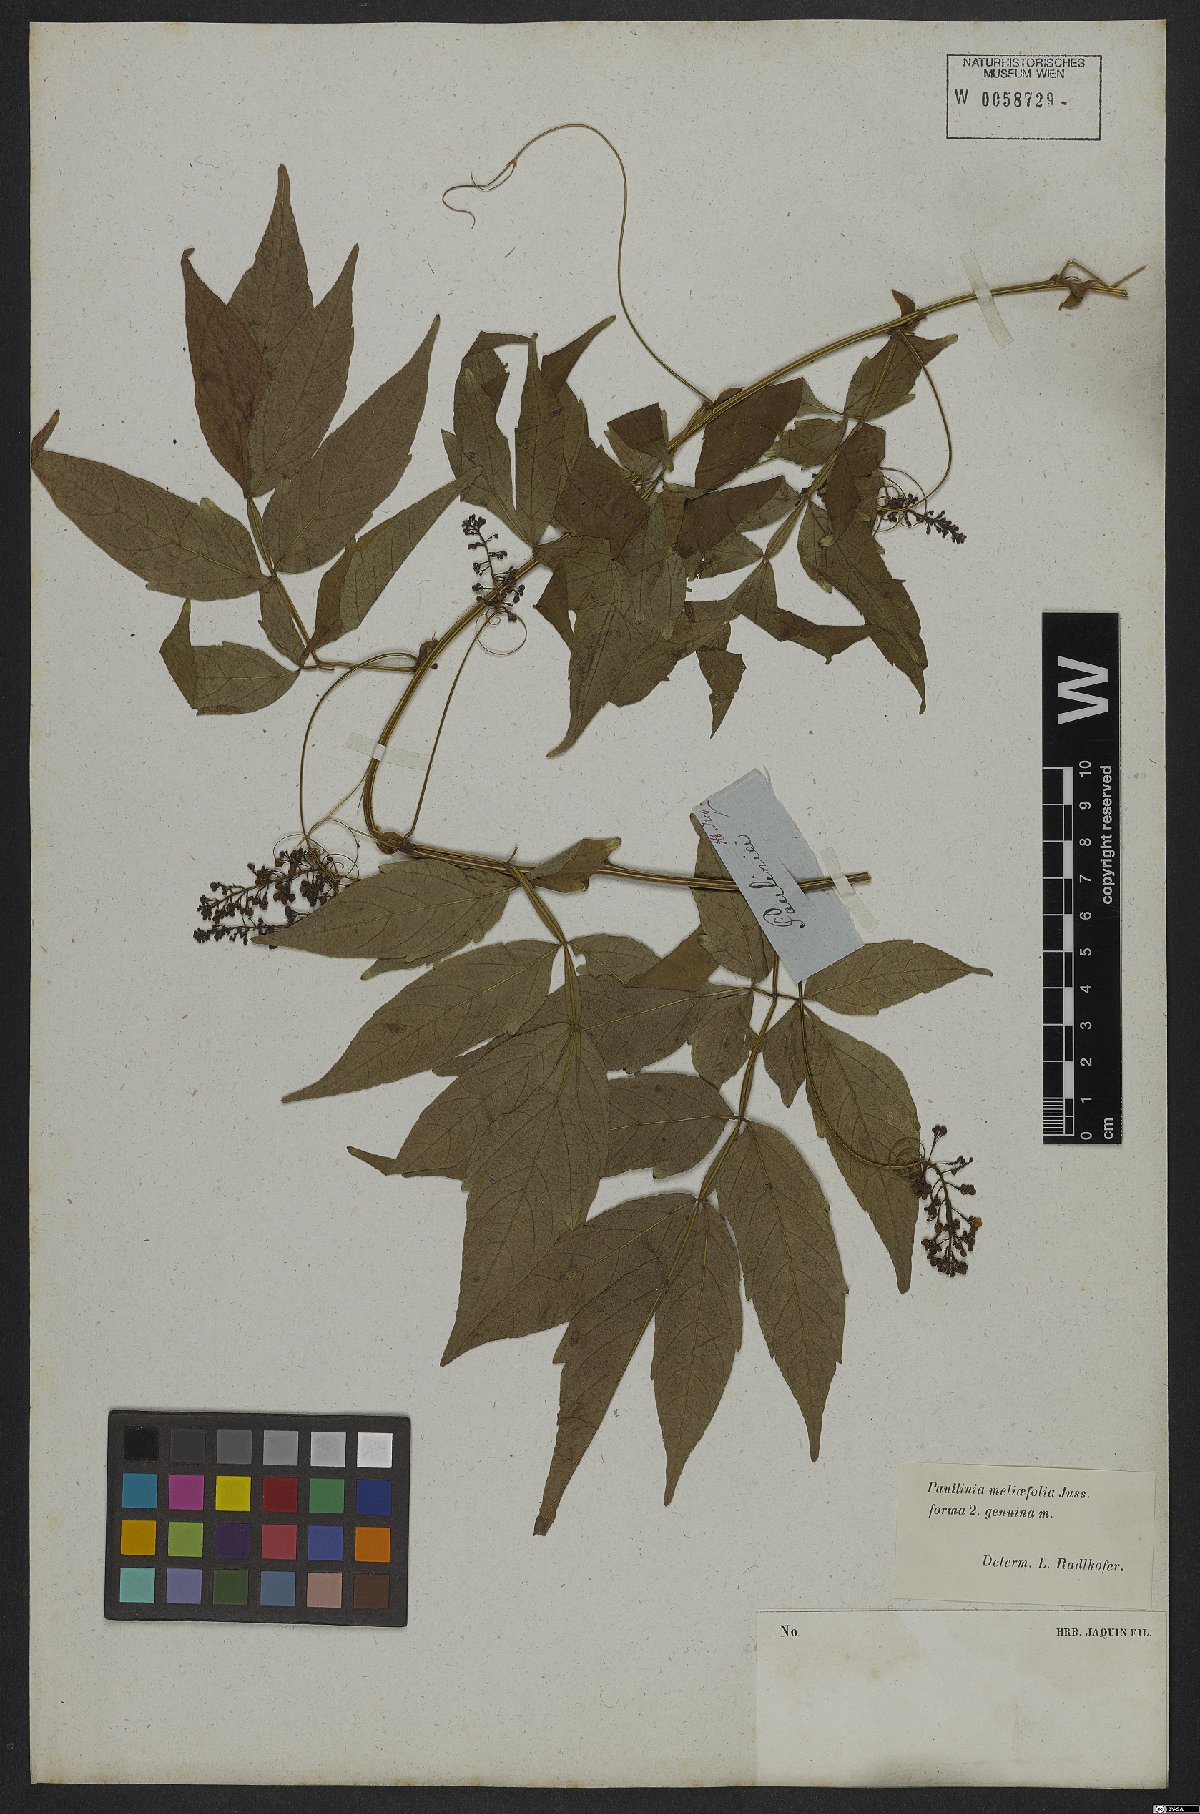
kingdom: Plantae
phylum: Tracheophyta
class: Magnoliopsida
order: Sapindales
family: Sapindaceae
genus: Paullinia
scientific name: Paullinia meliifolia
